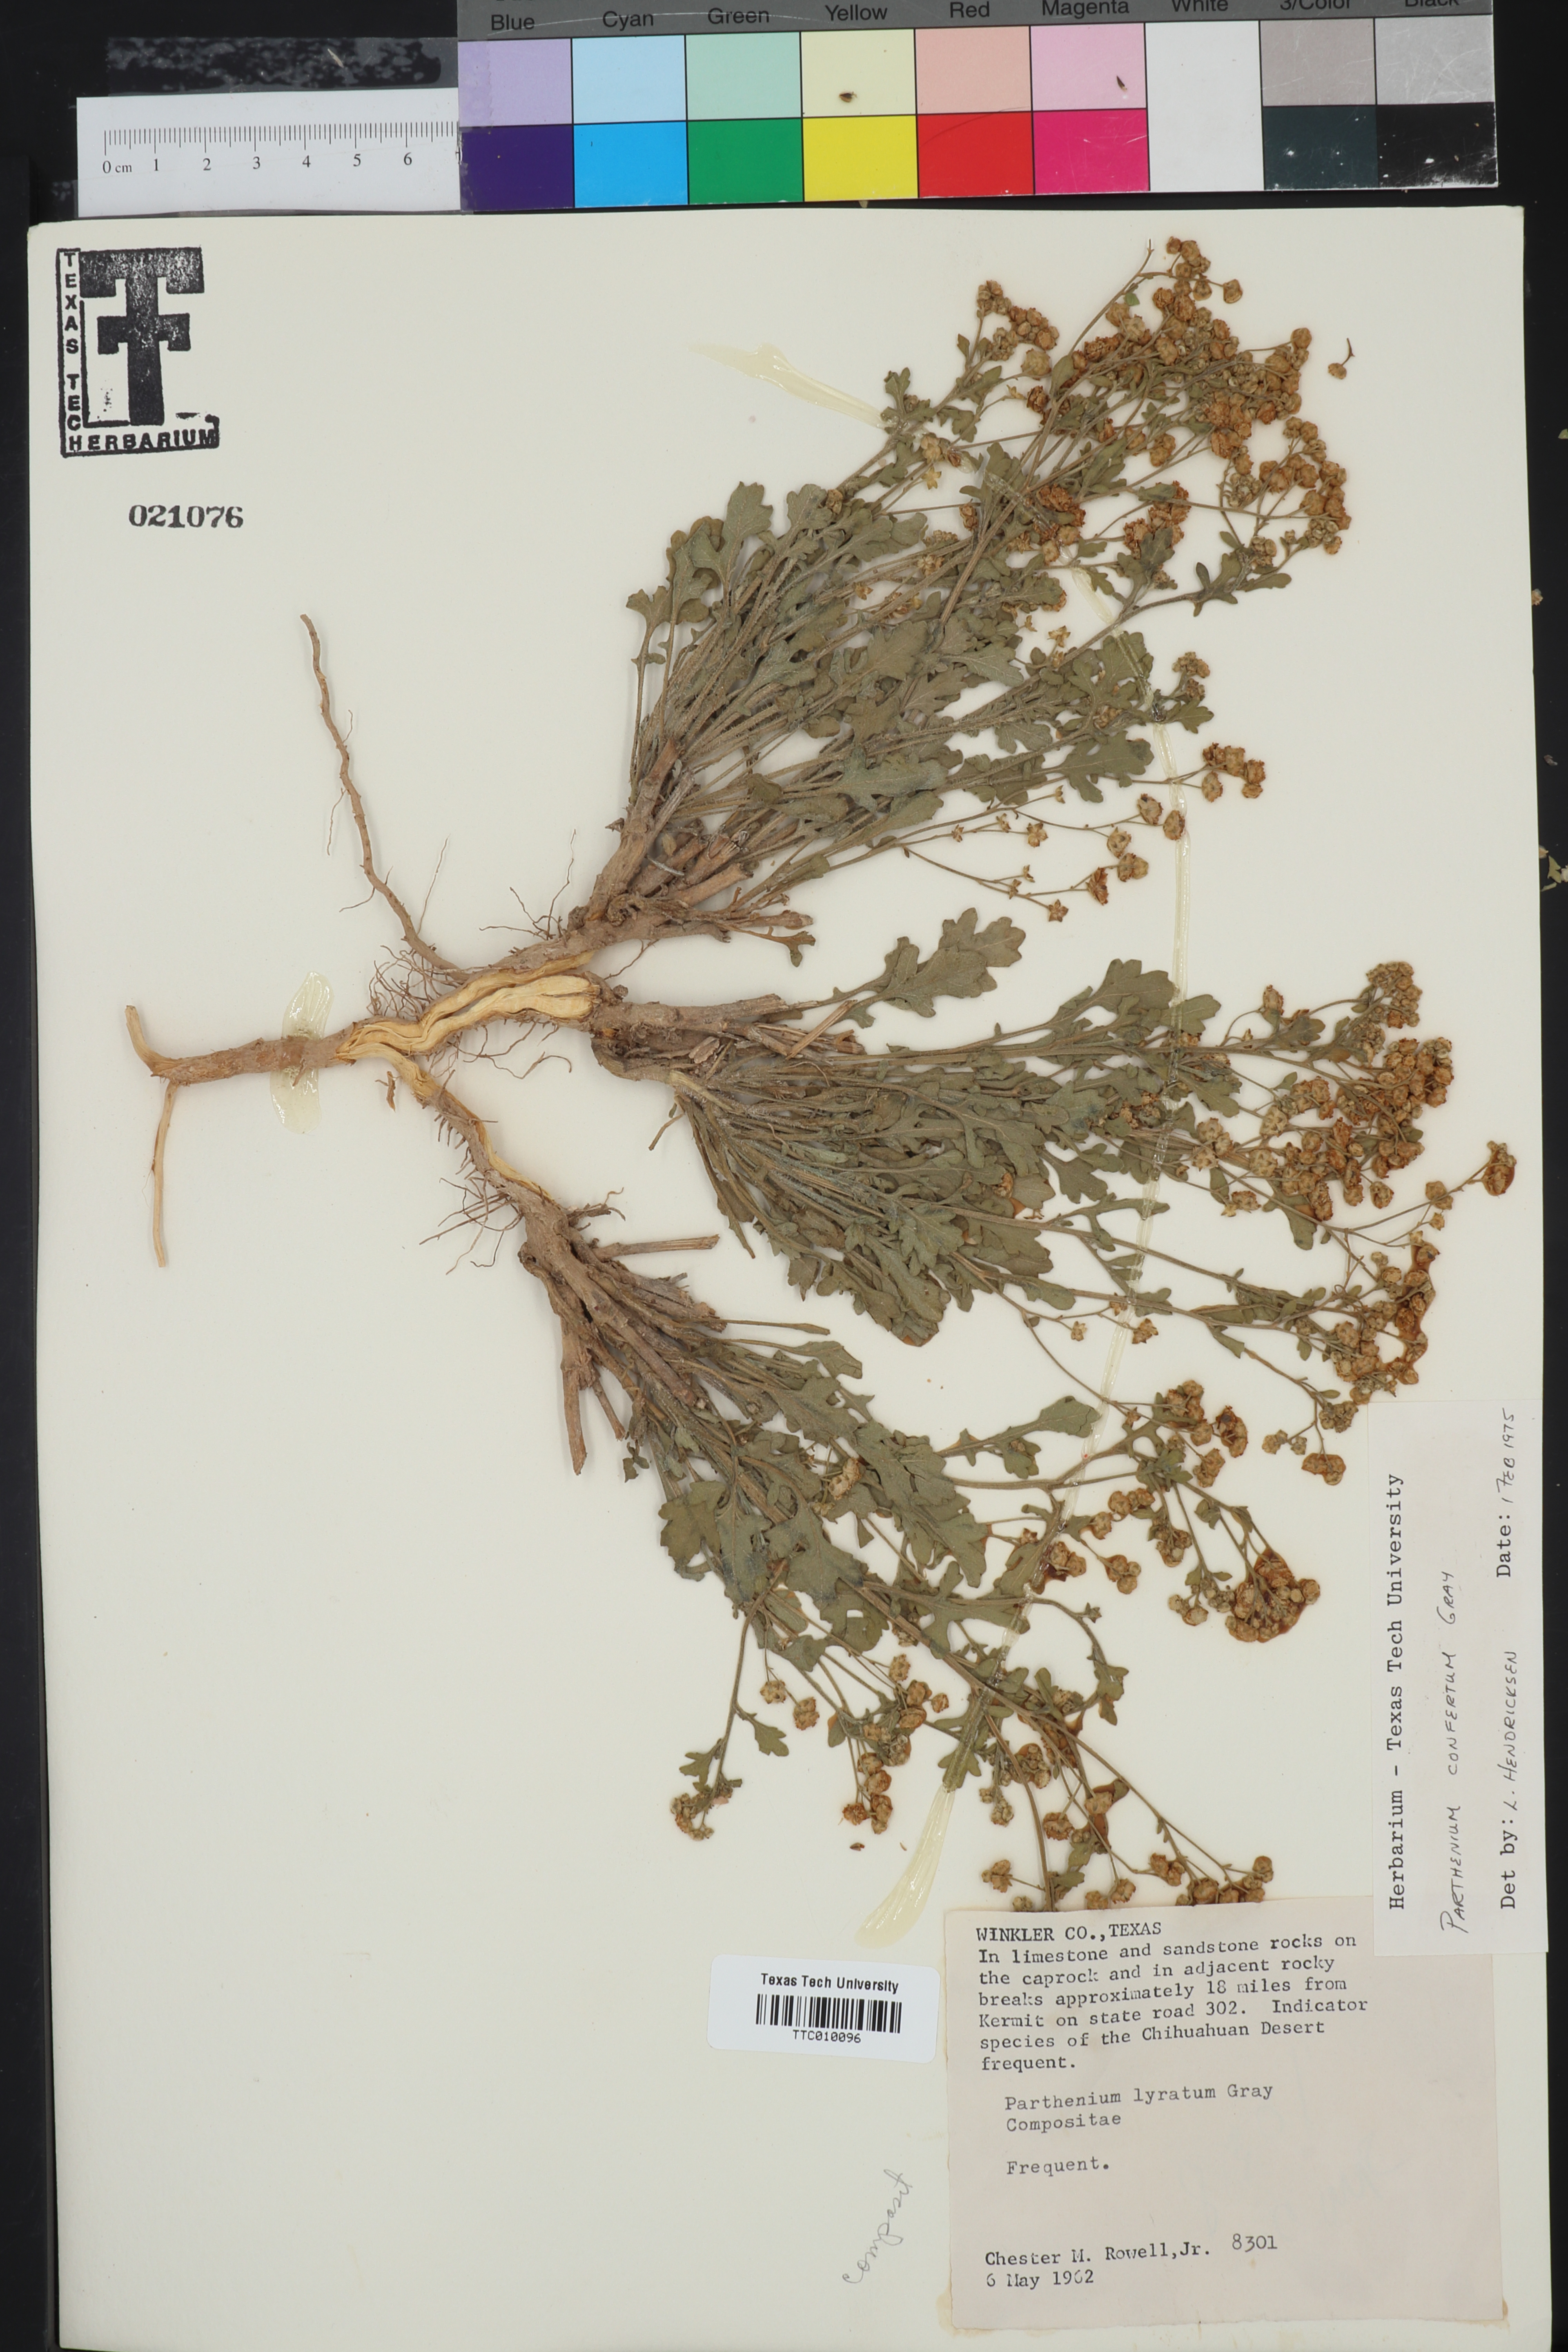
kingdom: Plantae
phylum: Tracheophyta
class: Magnoliopsida
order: Asterales
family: Asteraceae
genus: Parthenium
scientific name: Parthenium confertum
